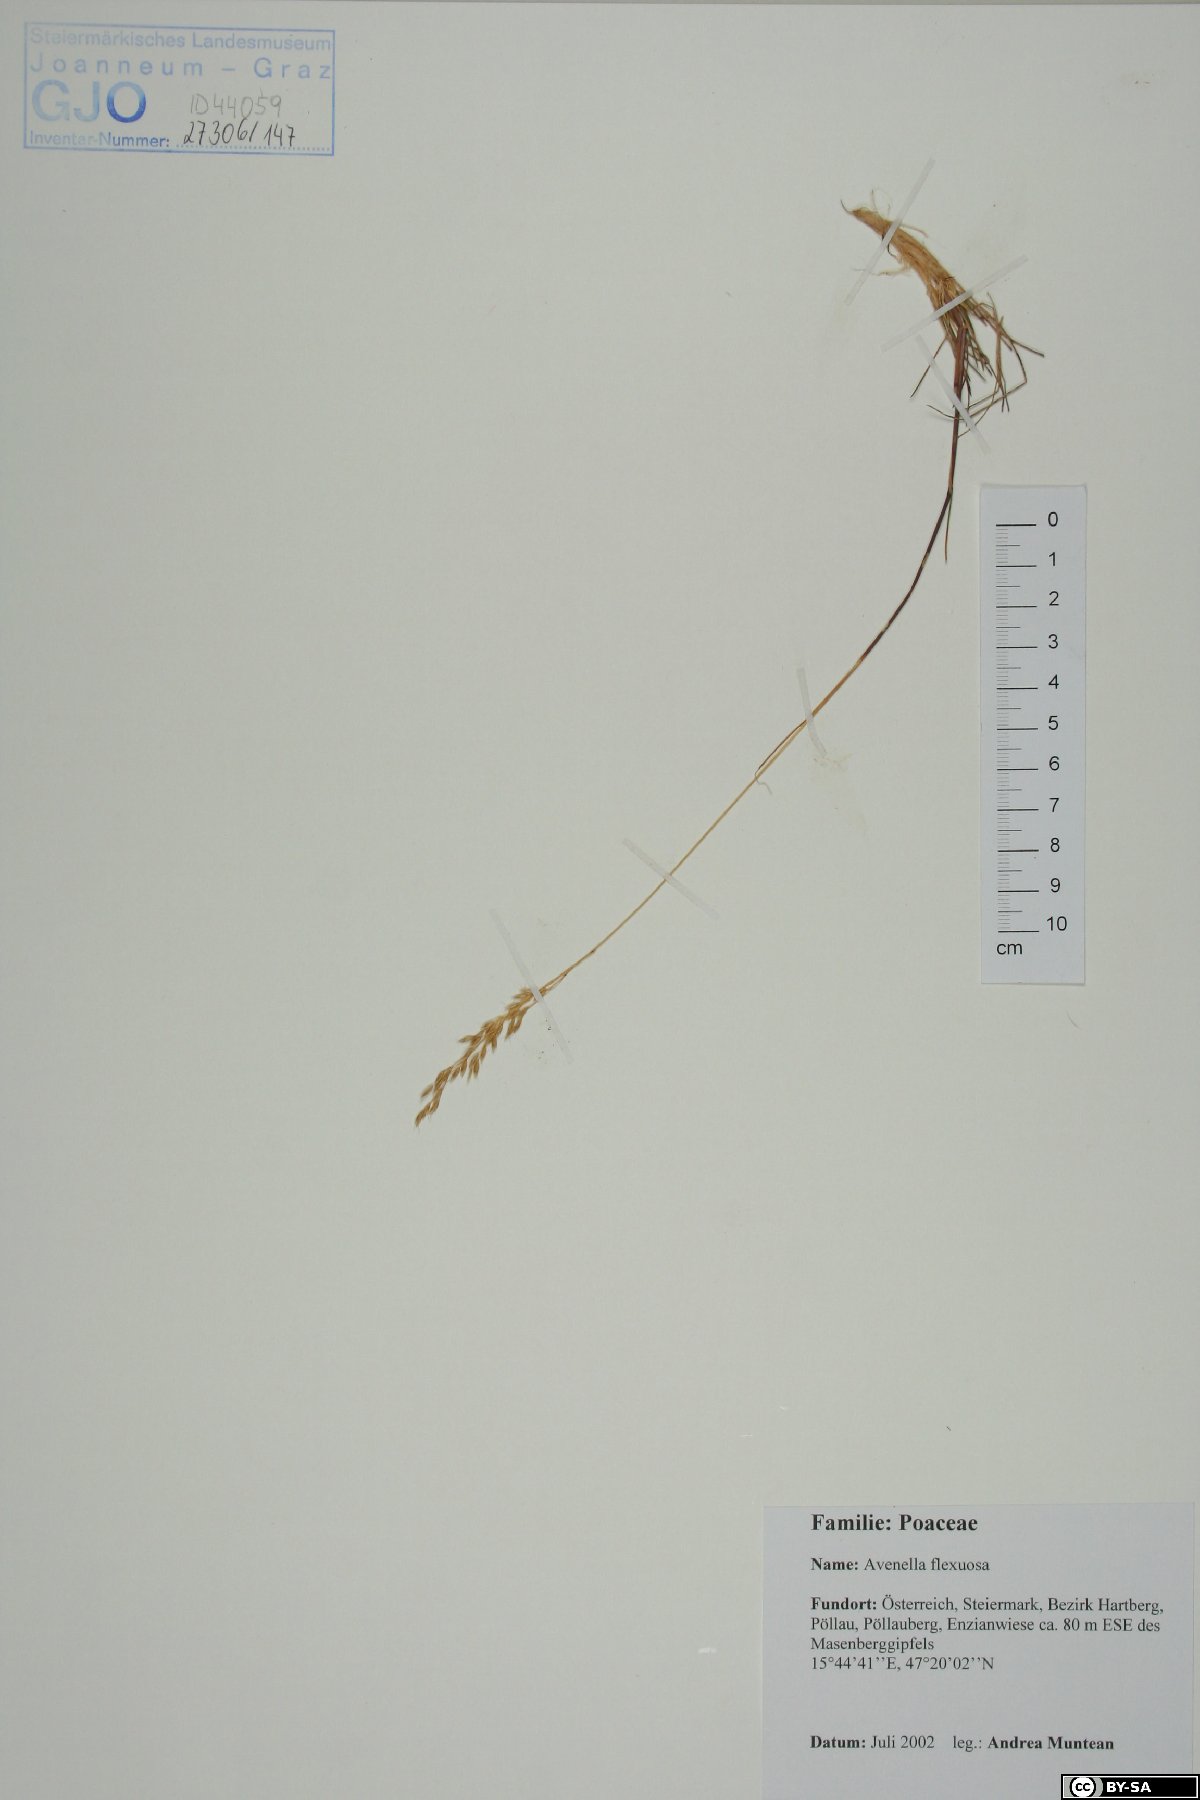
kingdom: Plantae
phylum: Tracheophyta
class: Liliopsida
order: Poales
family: Poaceae
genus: Avenella
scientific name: Avenella flexuosa
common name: Wavy hairgrass
